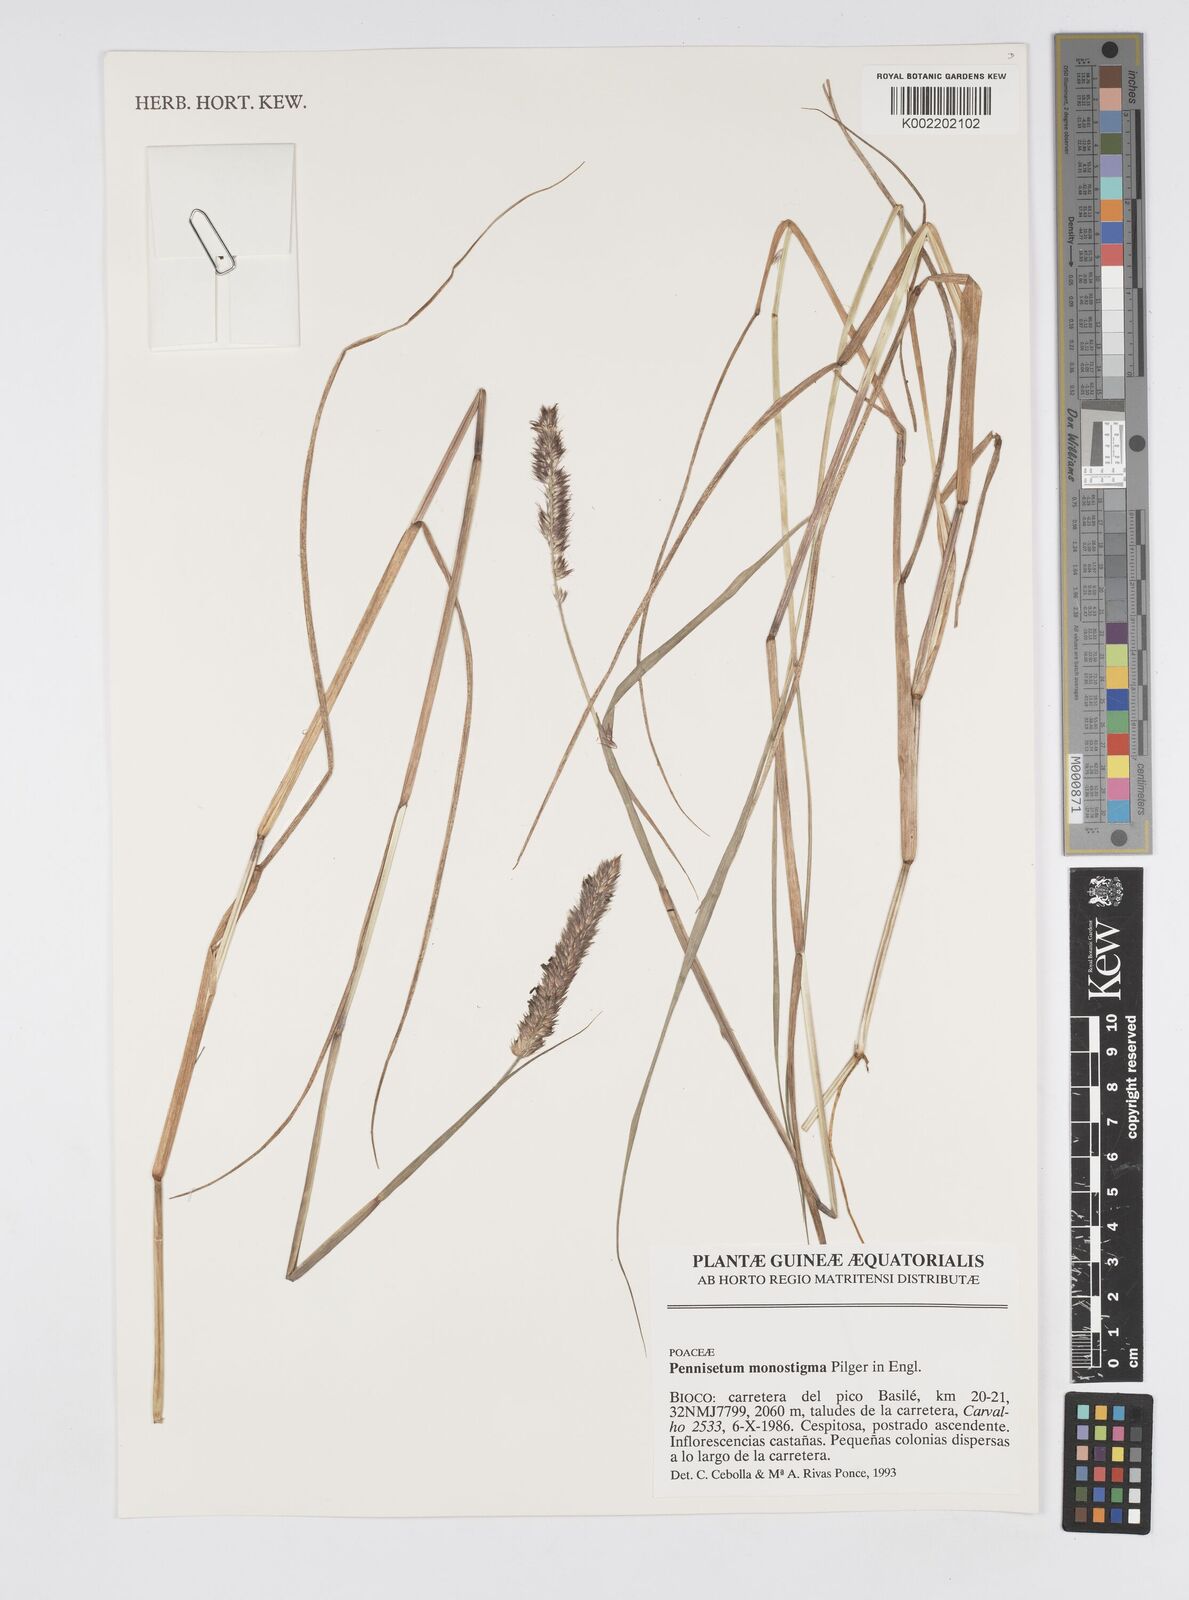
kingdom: Plantae
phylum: Tracheophyta
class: Liliopsida
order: Poales
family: Poaceae
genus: Cenchrus
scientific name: Cenchrus monostigma
